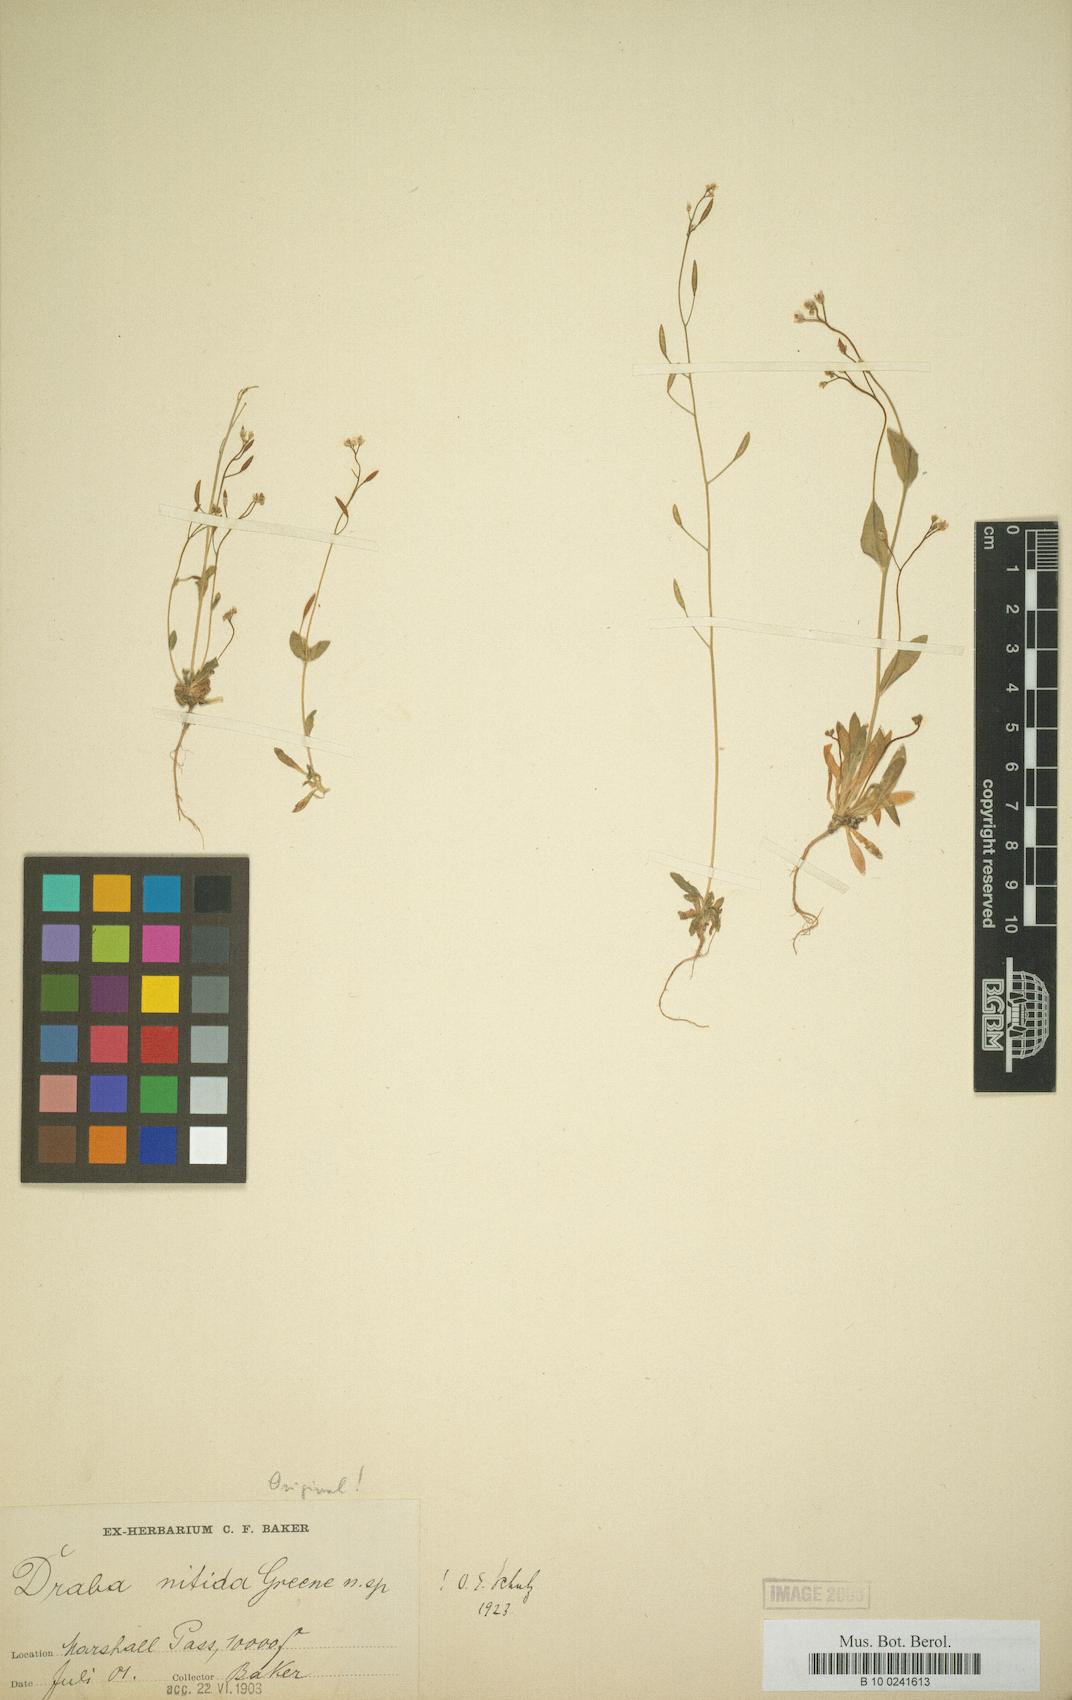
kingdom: Plantae
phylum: Tracheophyta
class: Magnoliopsida
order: Brassicales
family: Brassicaceae
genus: Draba
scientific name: Draba albertina
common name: Slender draba
